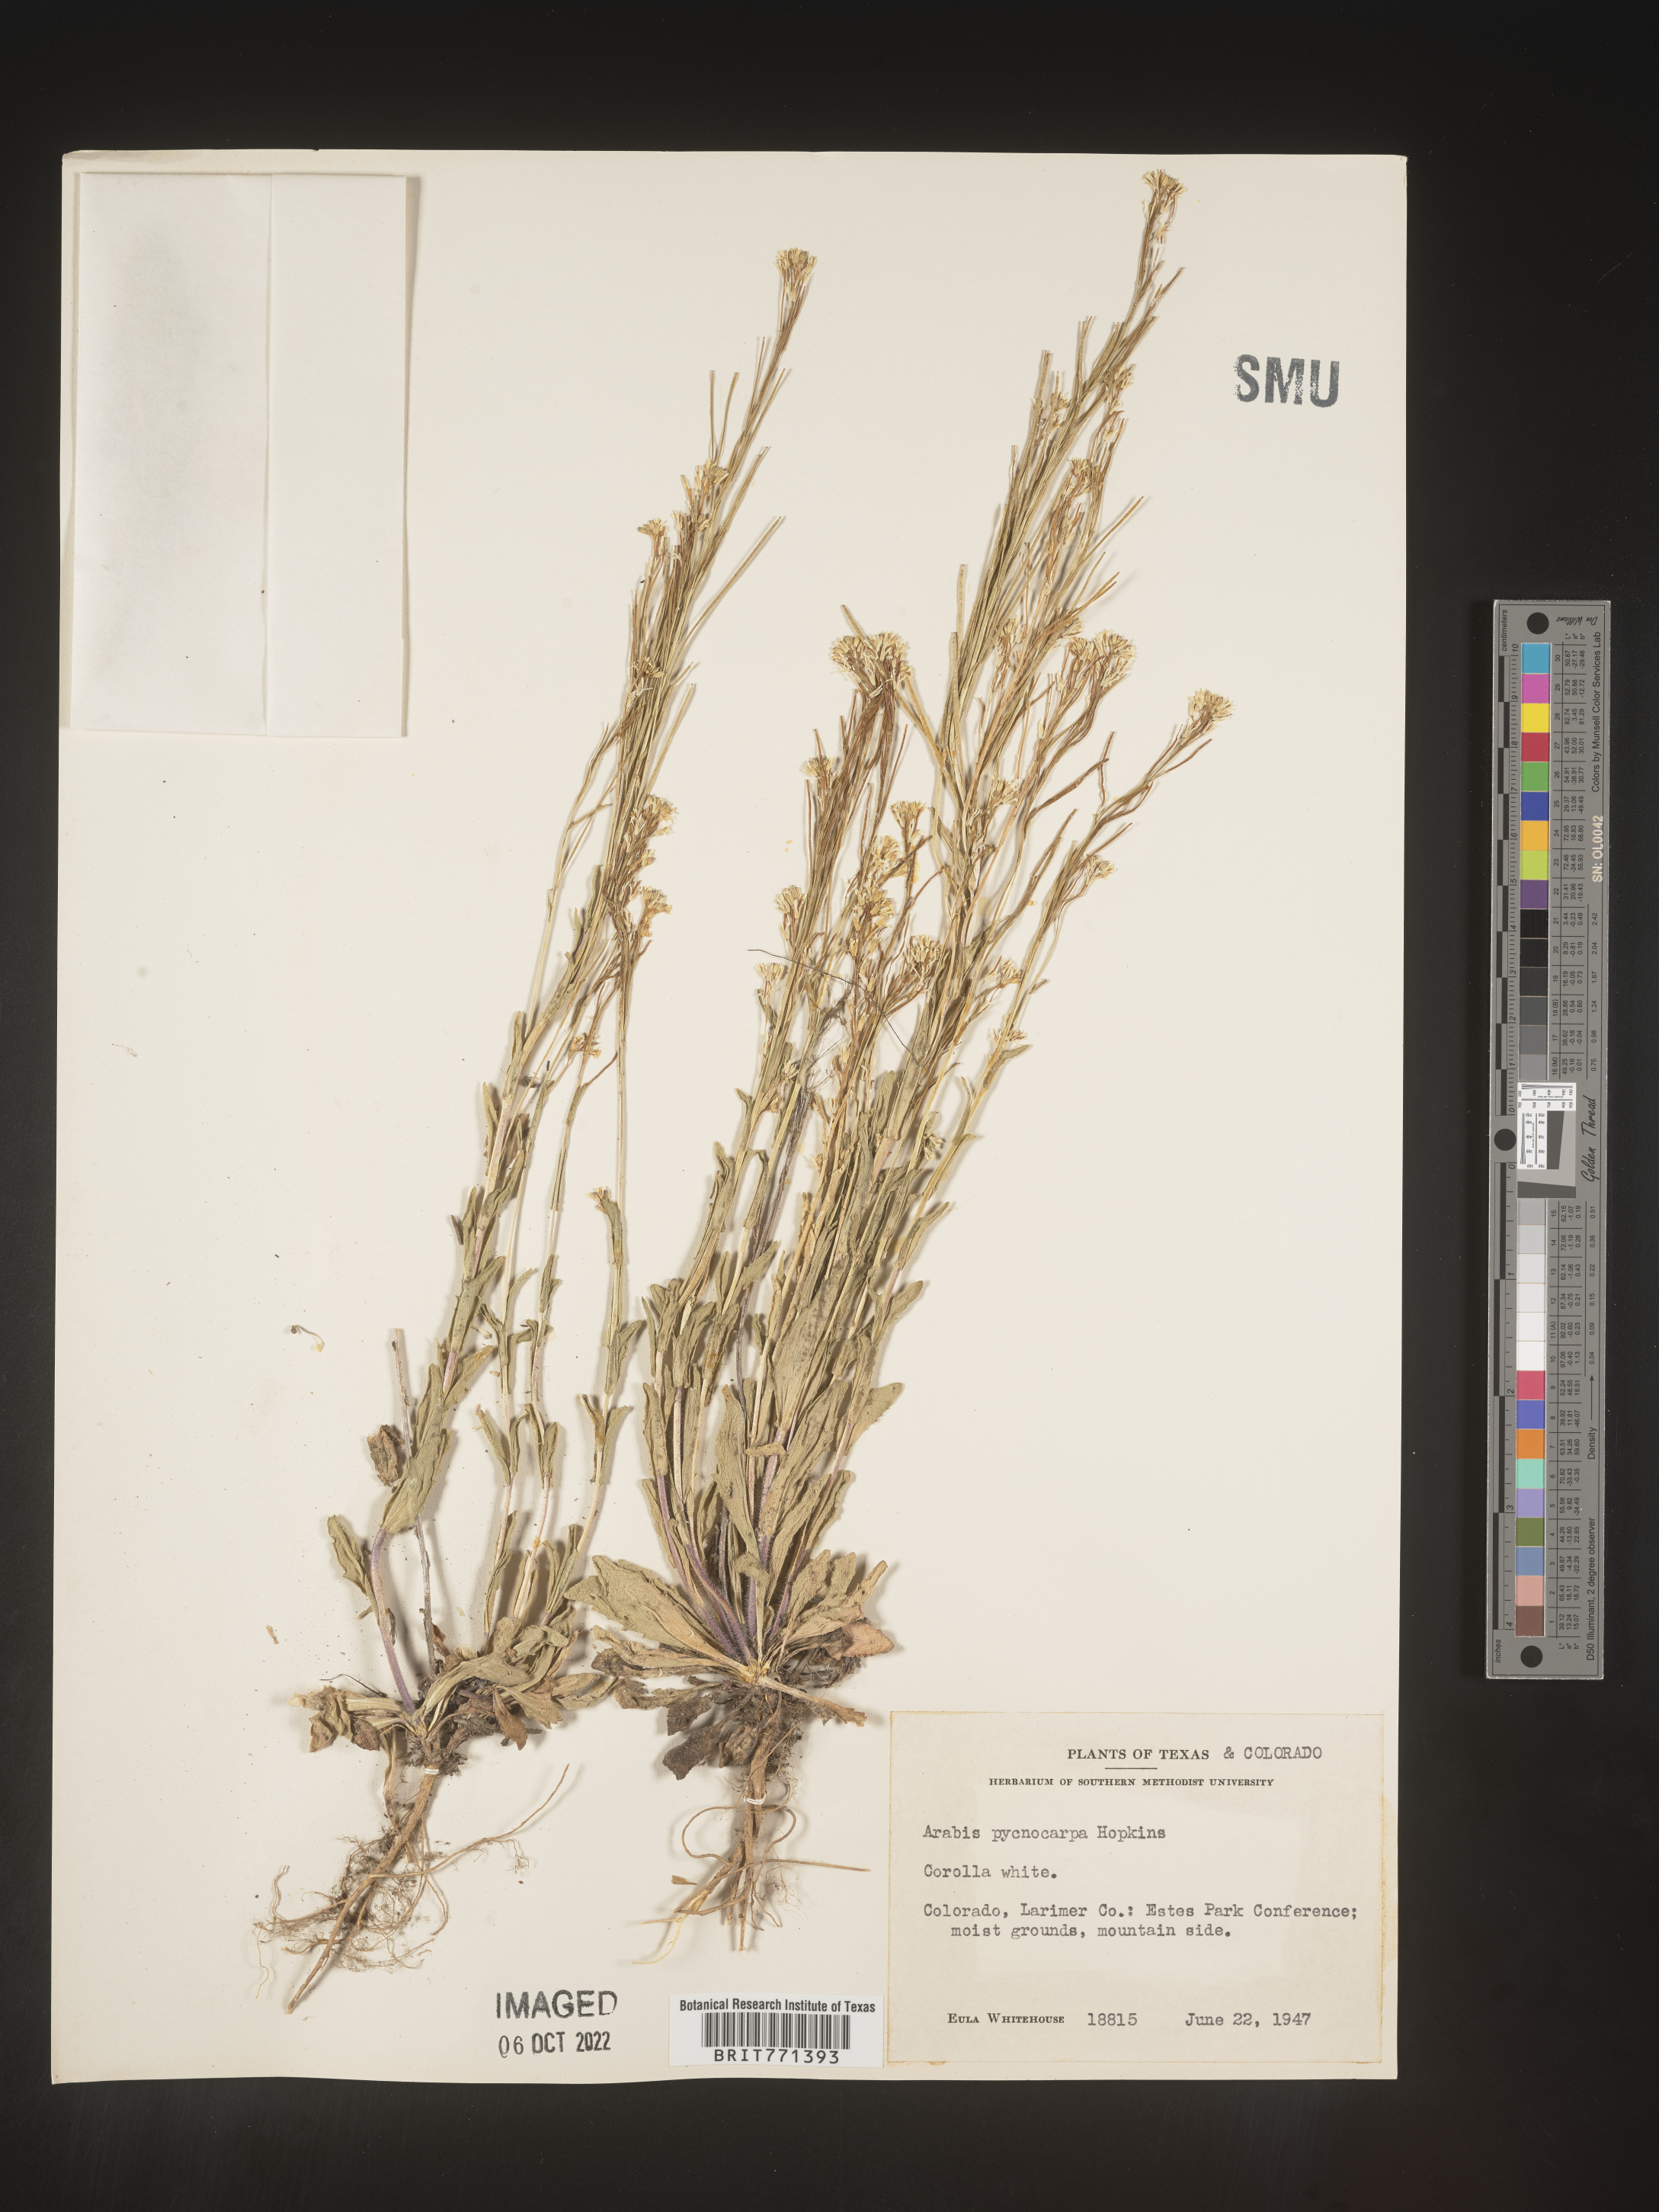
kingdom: Plantae
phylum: Tracheophyta
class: Magnoliopsida
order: Brassicales
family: Brassicaceae
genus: Arabis
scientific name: Arabis
